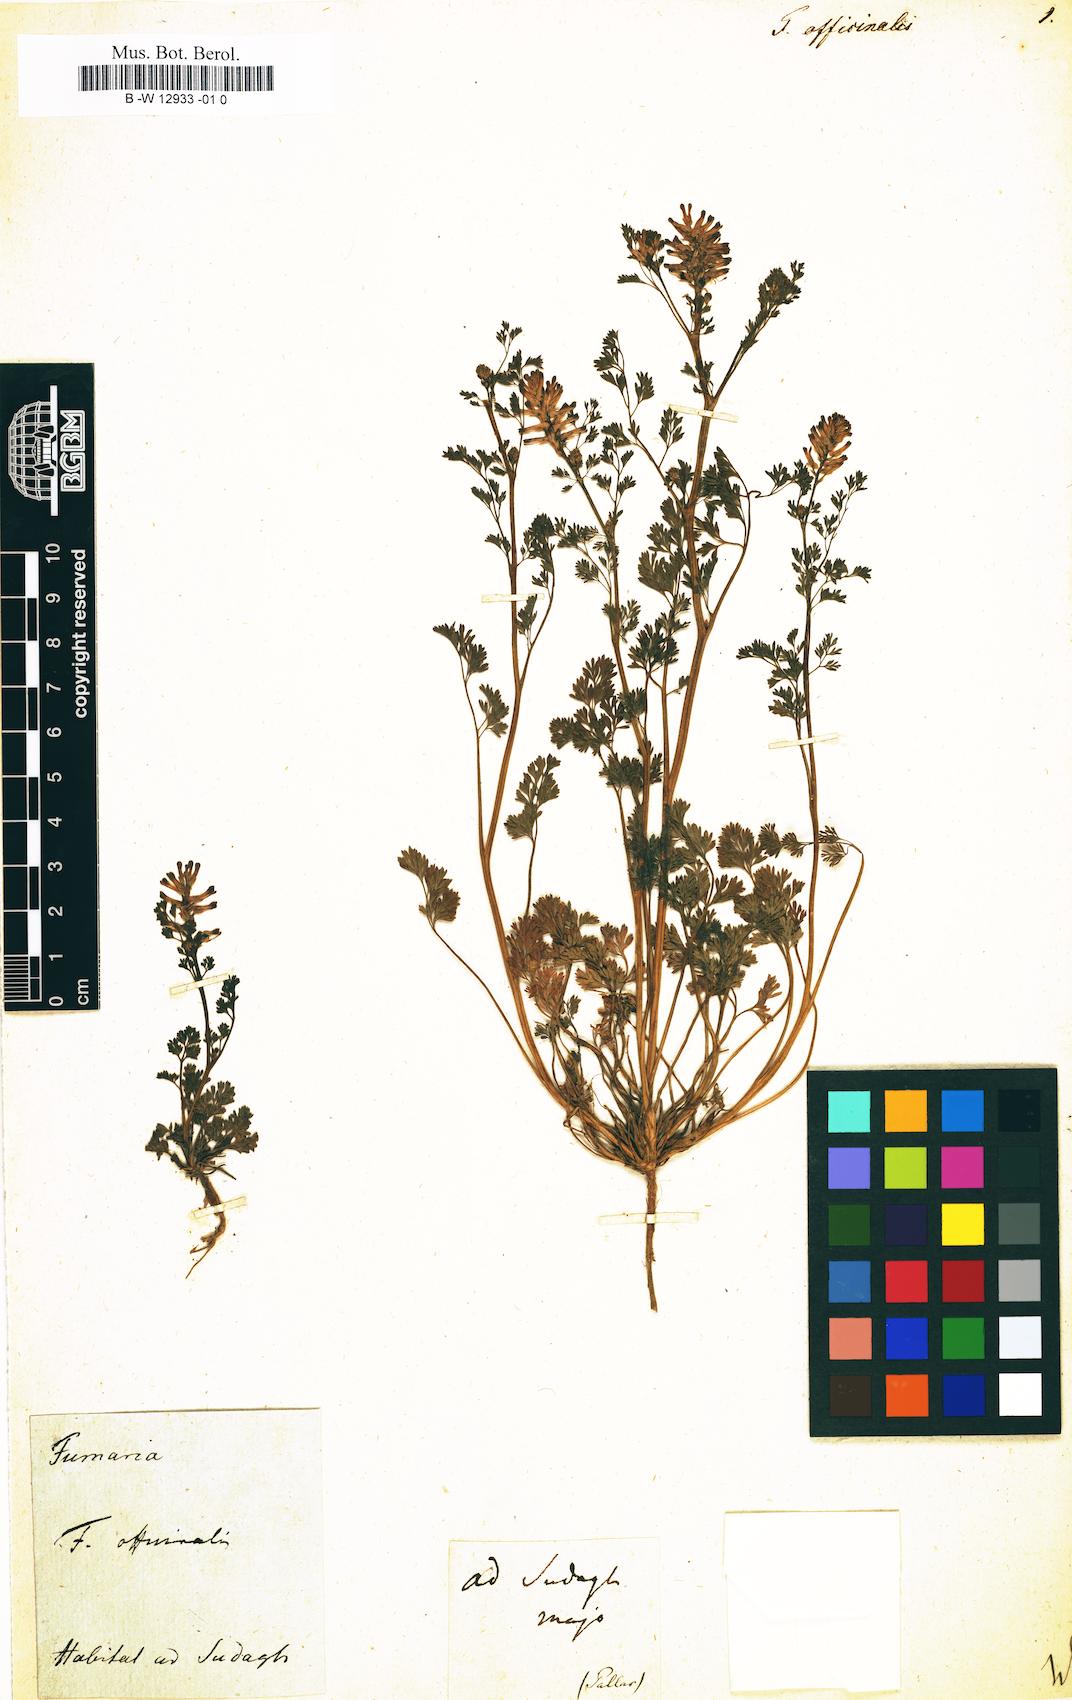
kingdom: Plantae
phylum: Tracheophyta
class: Magnoliopsida
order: Ranunculales
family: Papaveraceae
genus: Fumaria
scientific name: Fumaria officinalis
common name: Common fumitory
